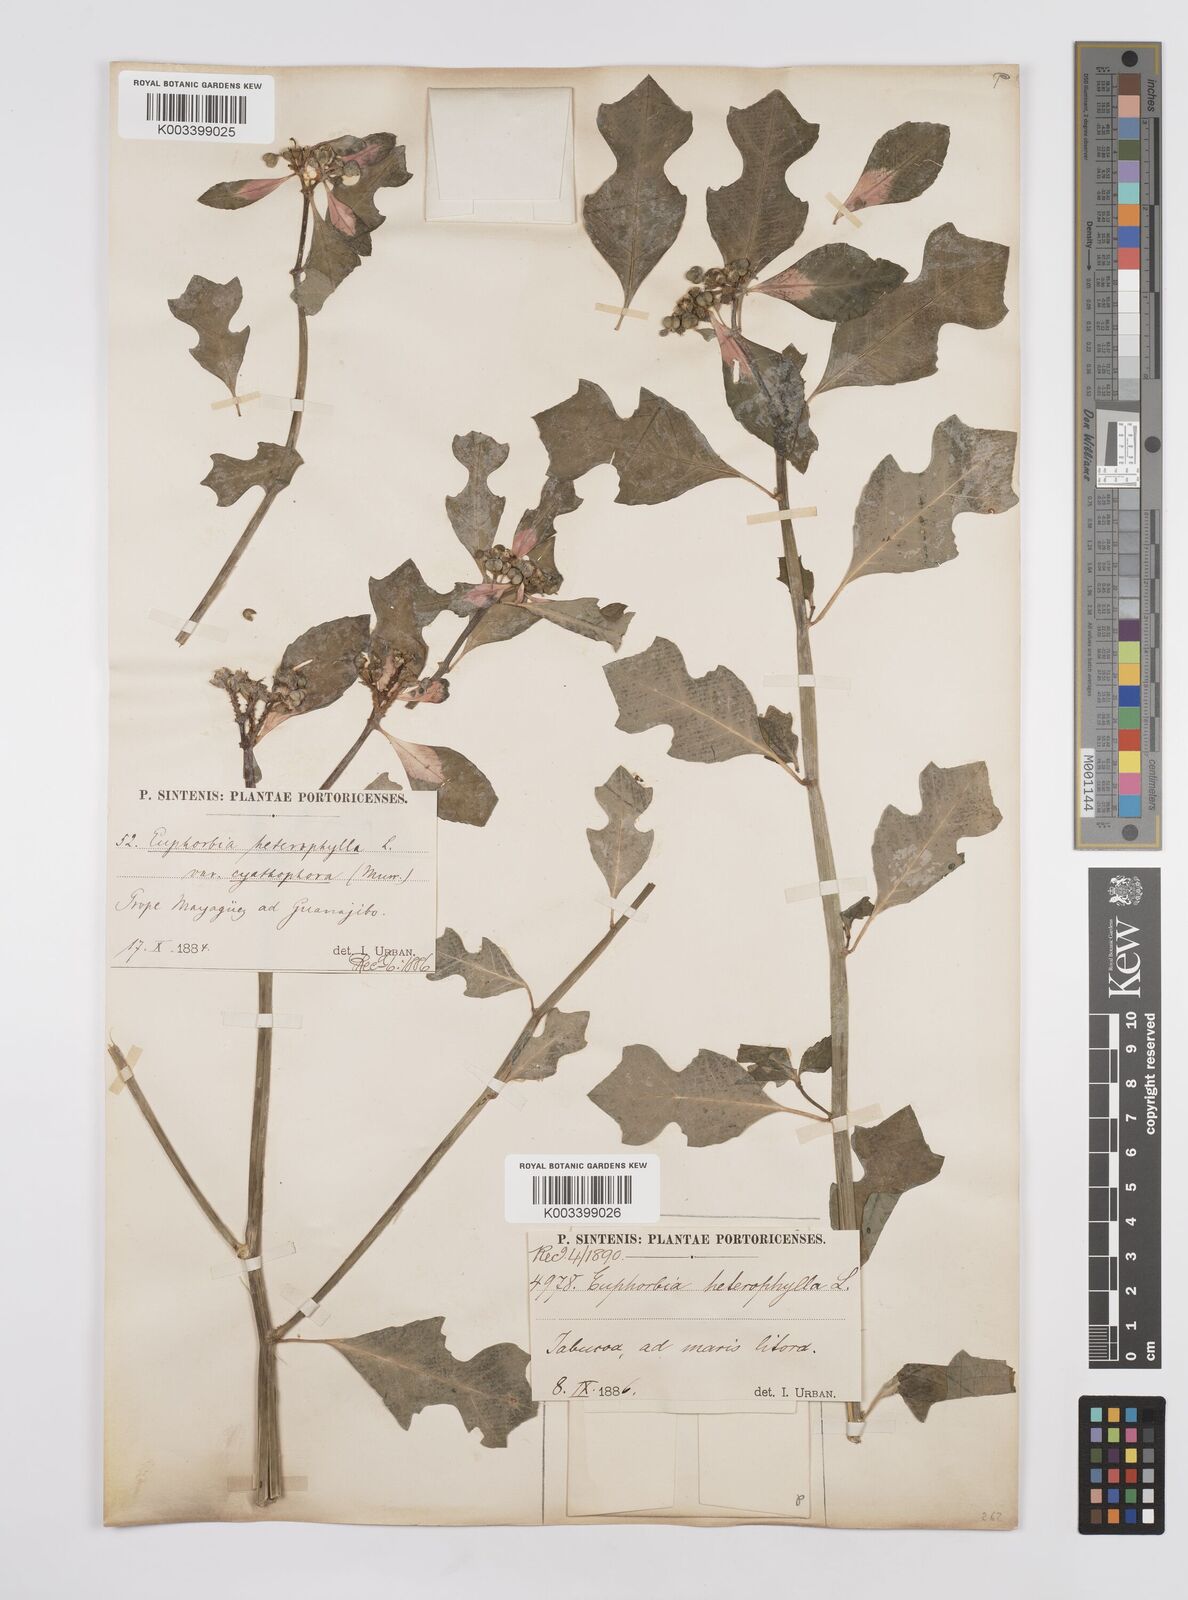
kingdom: Plantae
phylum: Tracheophyta
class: Magnoliopsida
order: Malpighiales
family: Euphorbiaceae
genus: Euphorbia
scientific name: Euphorbia heterophylla
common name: Mexican fireplant
